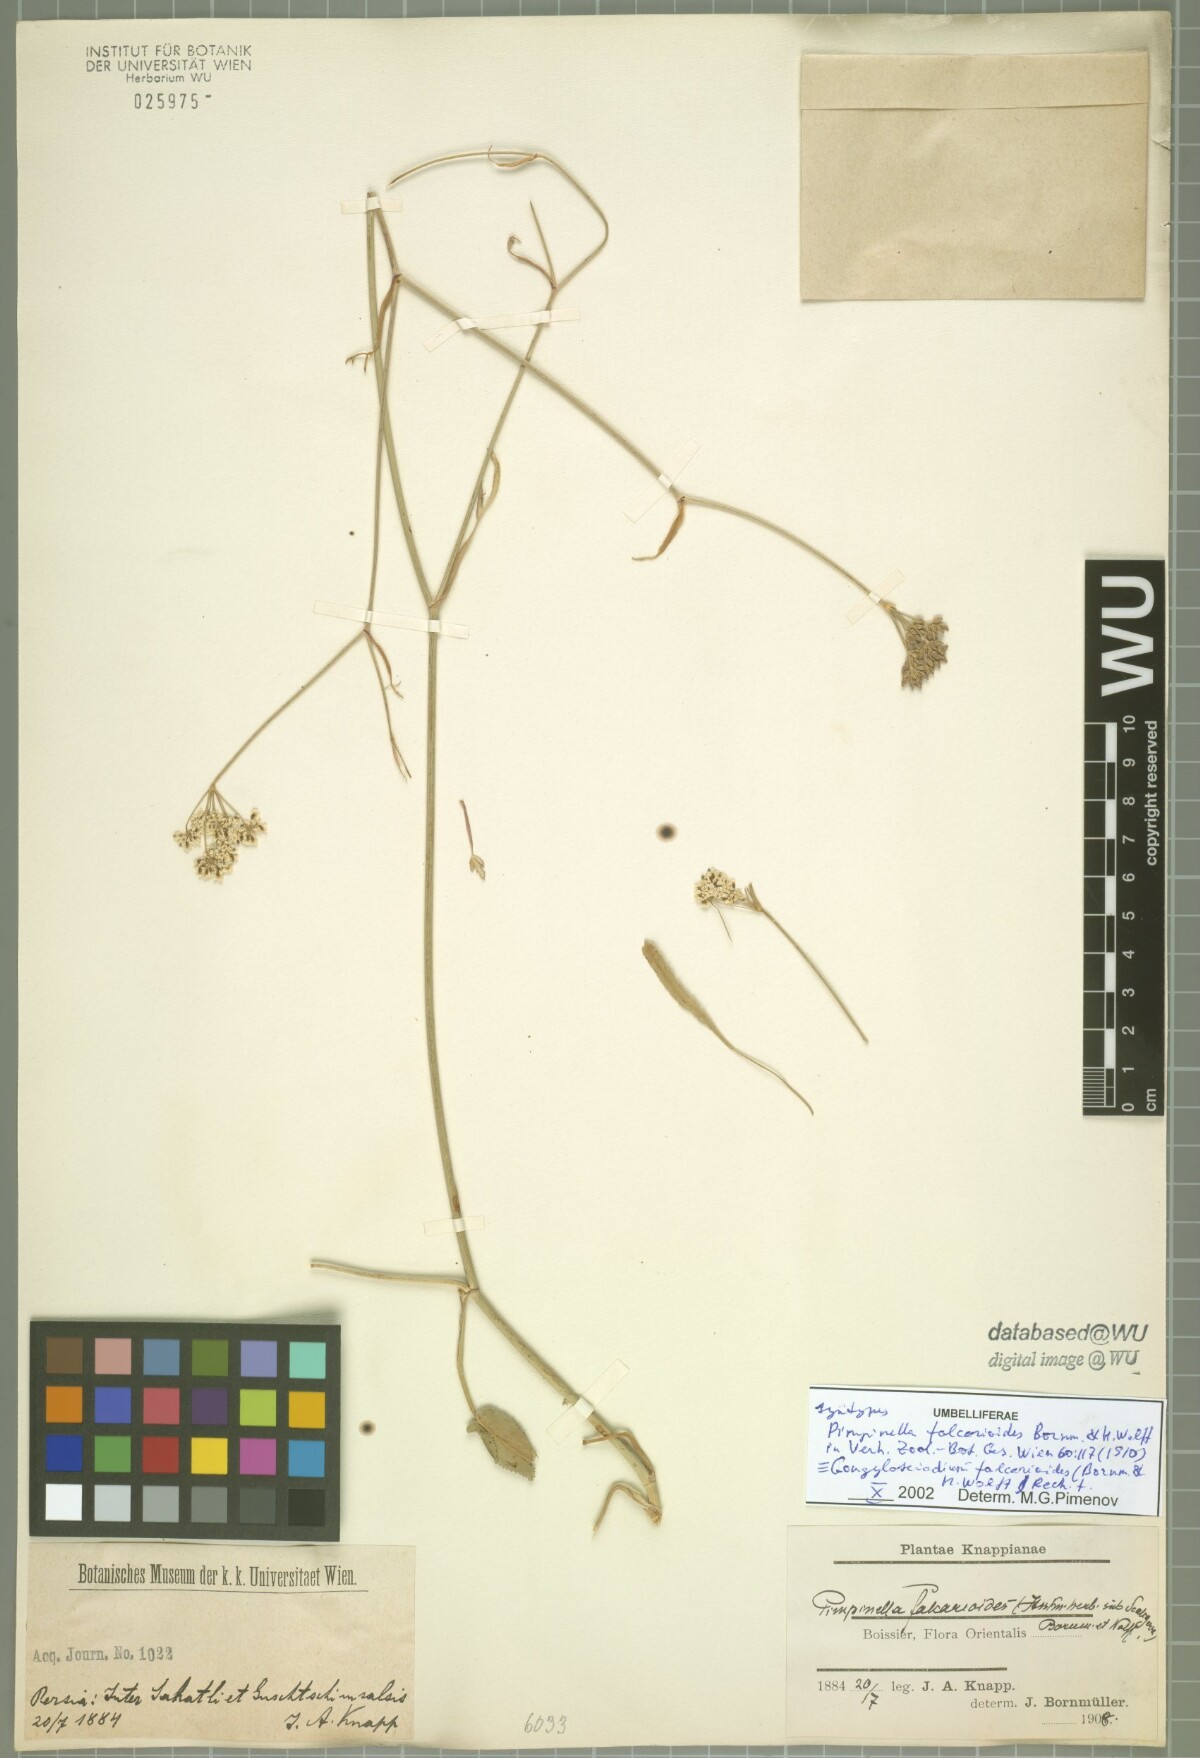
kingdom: Plantae
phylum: Tracheophyta
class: Magnoliopsida
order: Apiales
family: Apiaceae
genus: Gongylosciadium
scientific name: Gongylosciadium falcarioides
